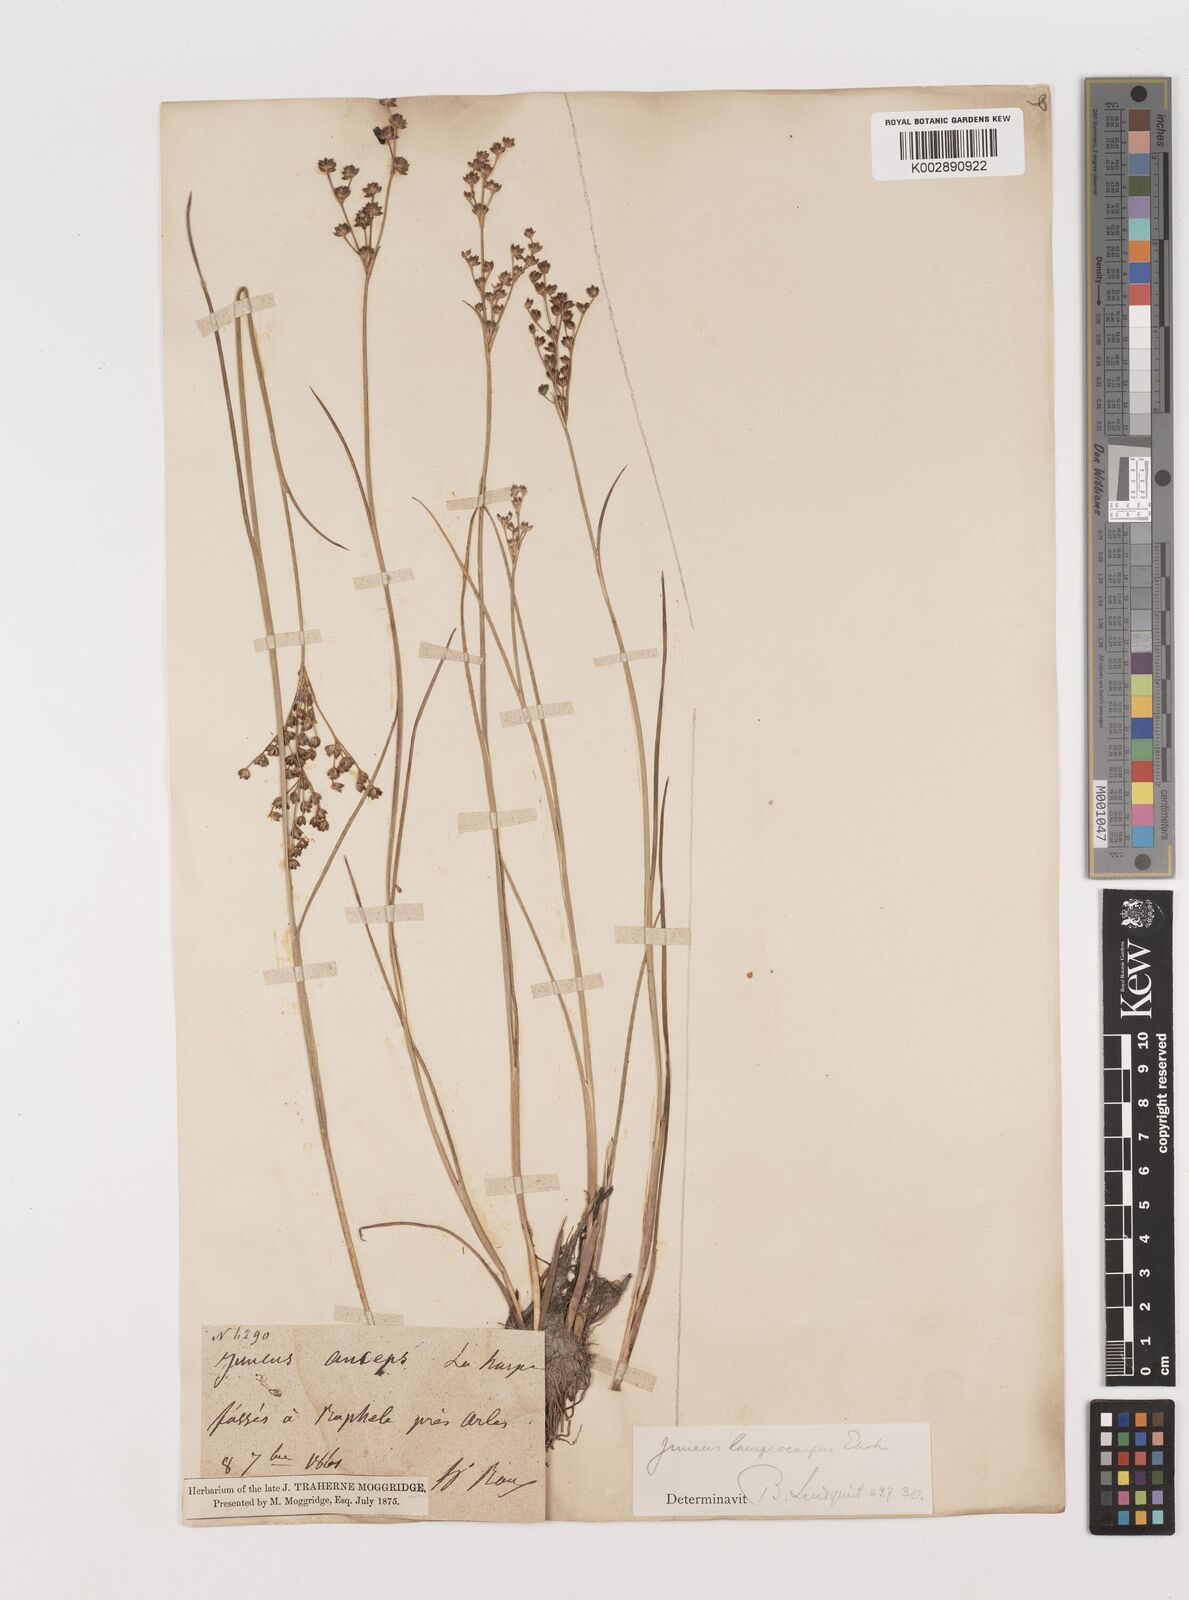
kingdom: Plantae
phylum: Tracheophyta
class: Liliopsida
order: Poales
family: Juncaceae
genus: Juncus
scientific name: Juncus
